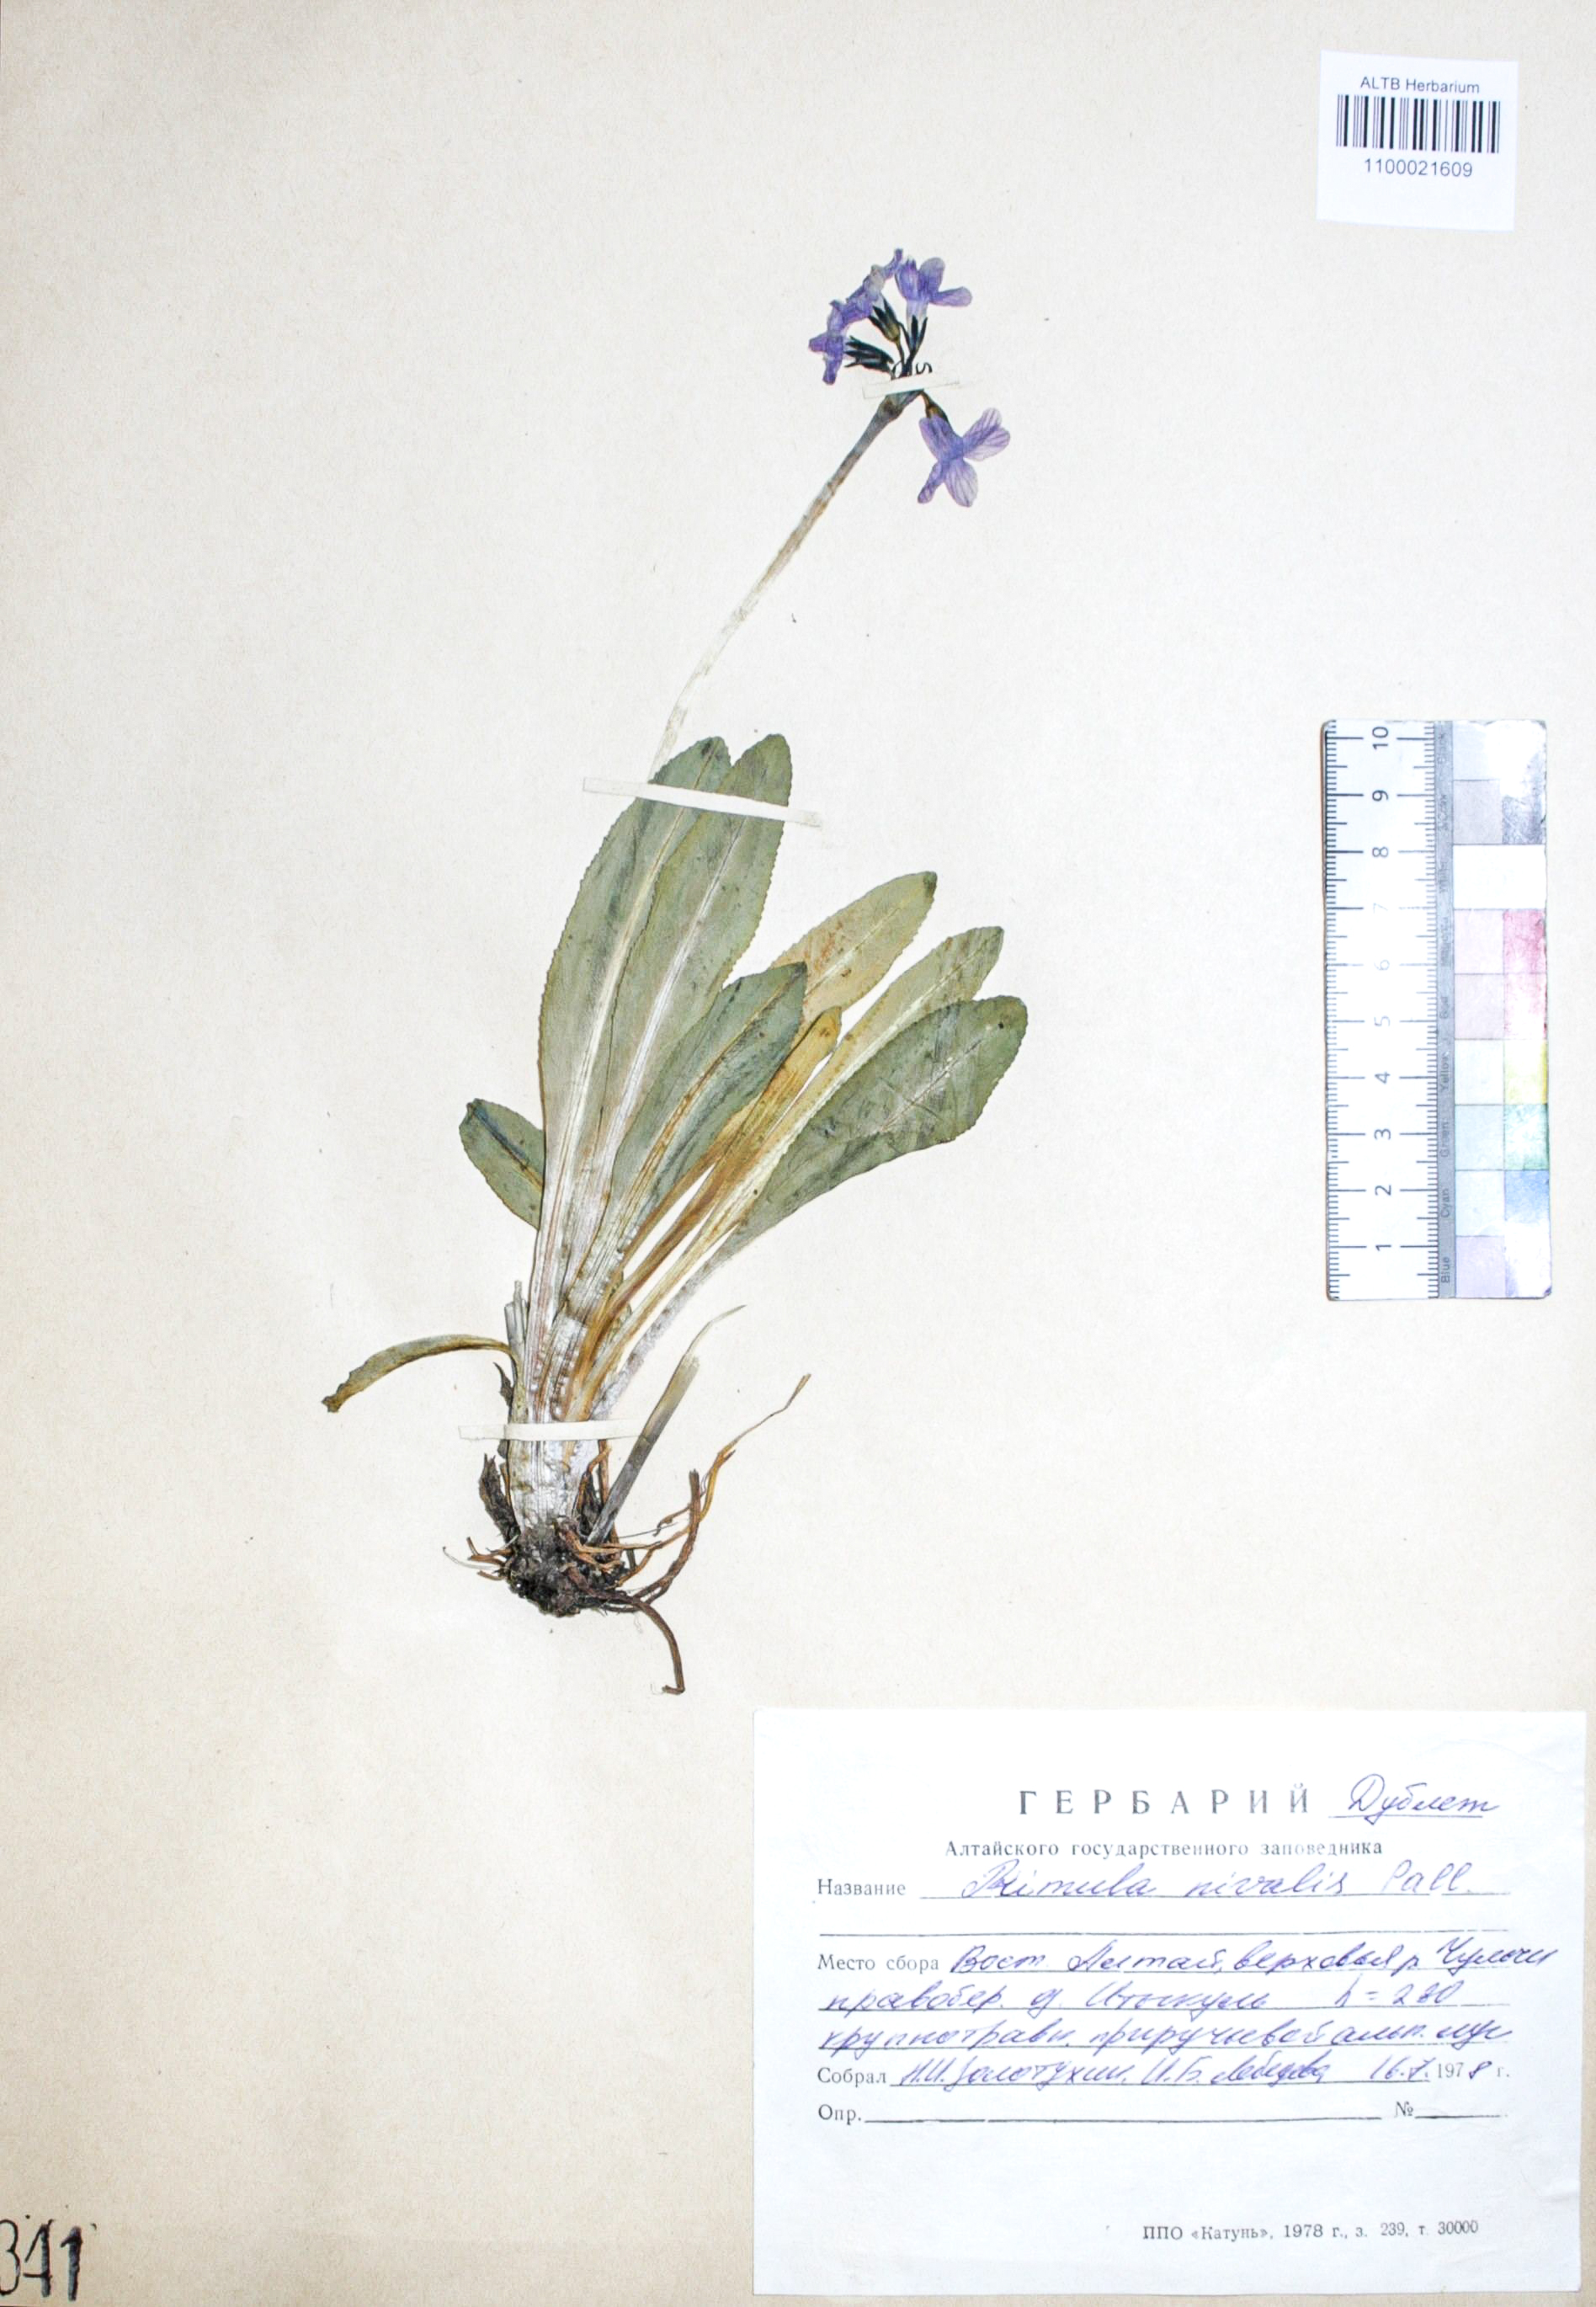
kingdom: Plantae
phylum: Tracheophyta
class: Magnoliopsida
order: Ericales
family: Primulaceae
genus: Primula
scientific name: Primula nivalis
